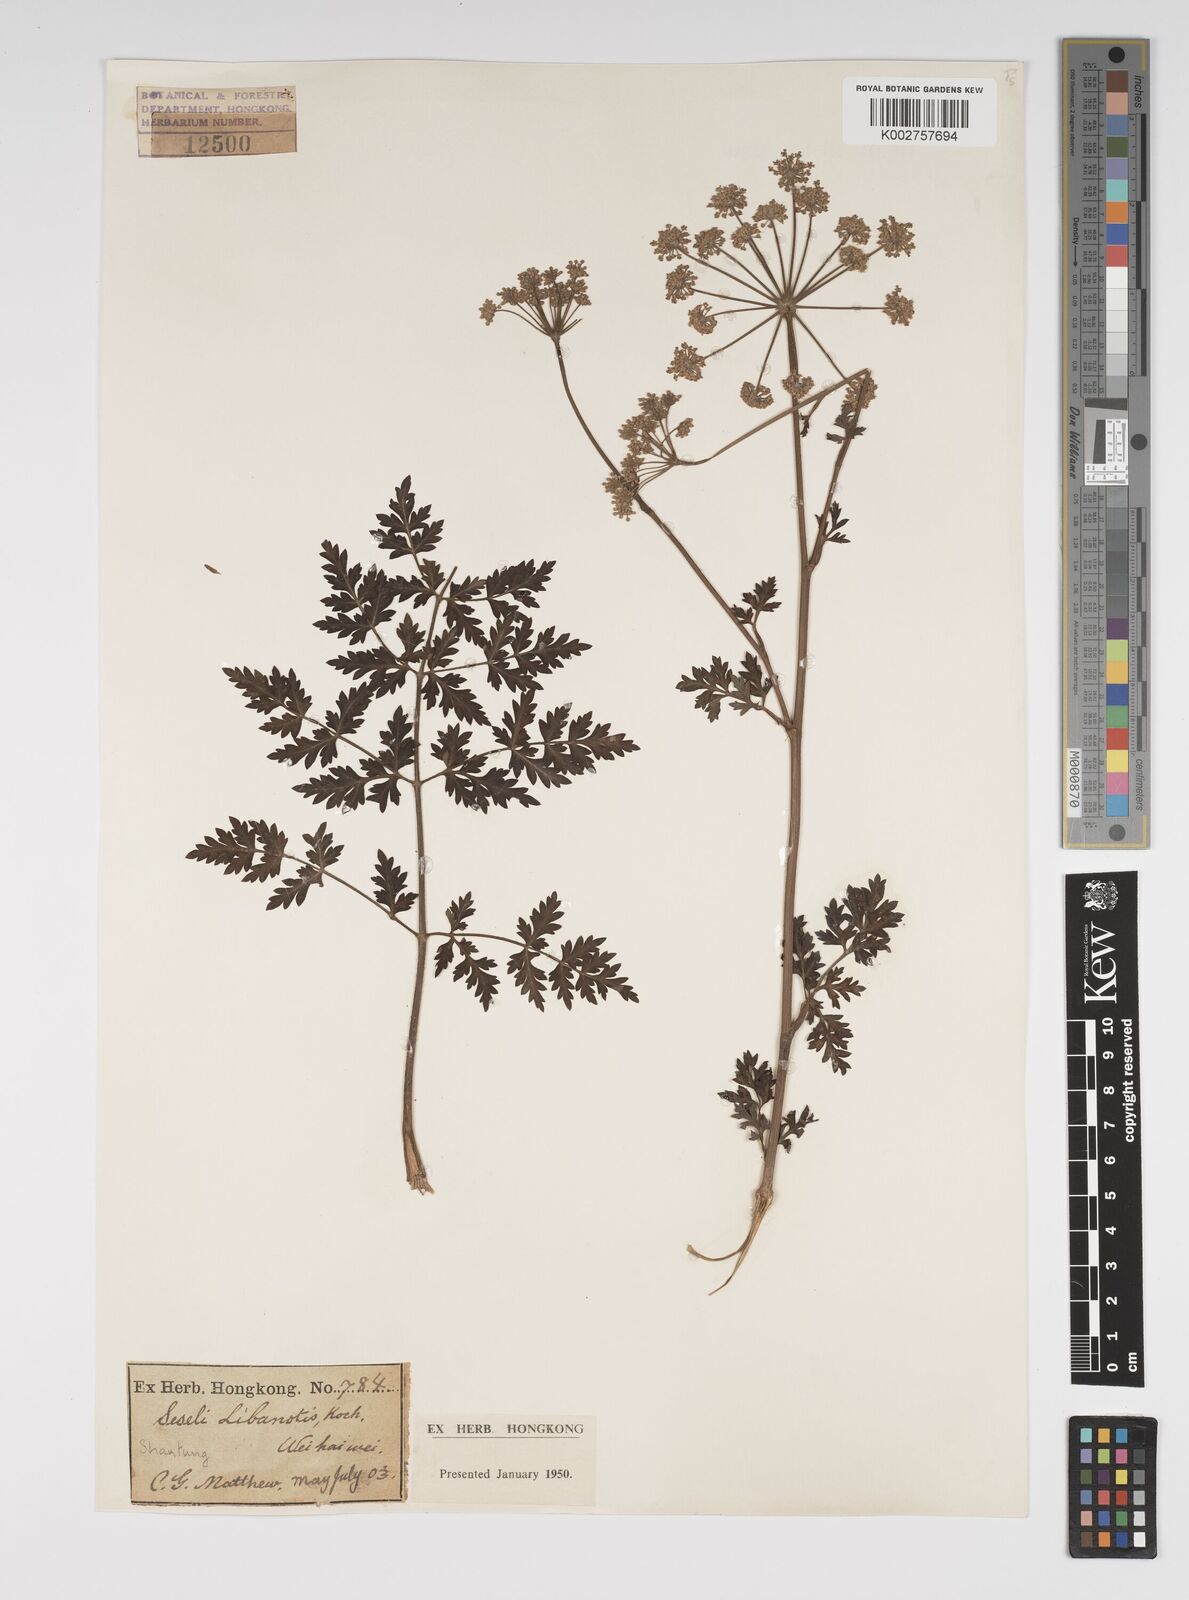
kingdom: Plantae
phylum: Tracheophyta
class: Magnoliopsida
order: Apiales
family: Apiaceae
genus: Seseli
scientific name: Seseli libanotis
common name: Mooncarrot
